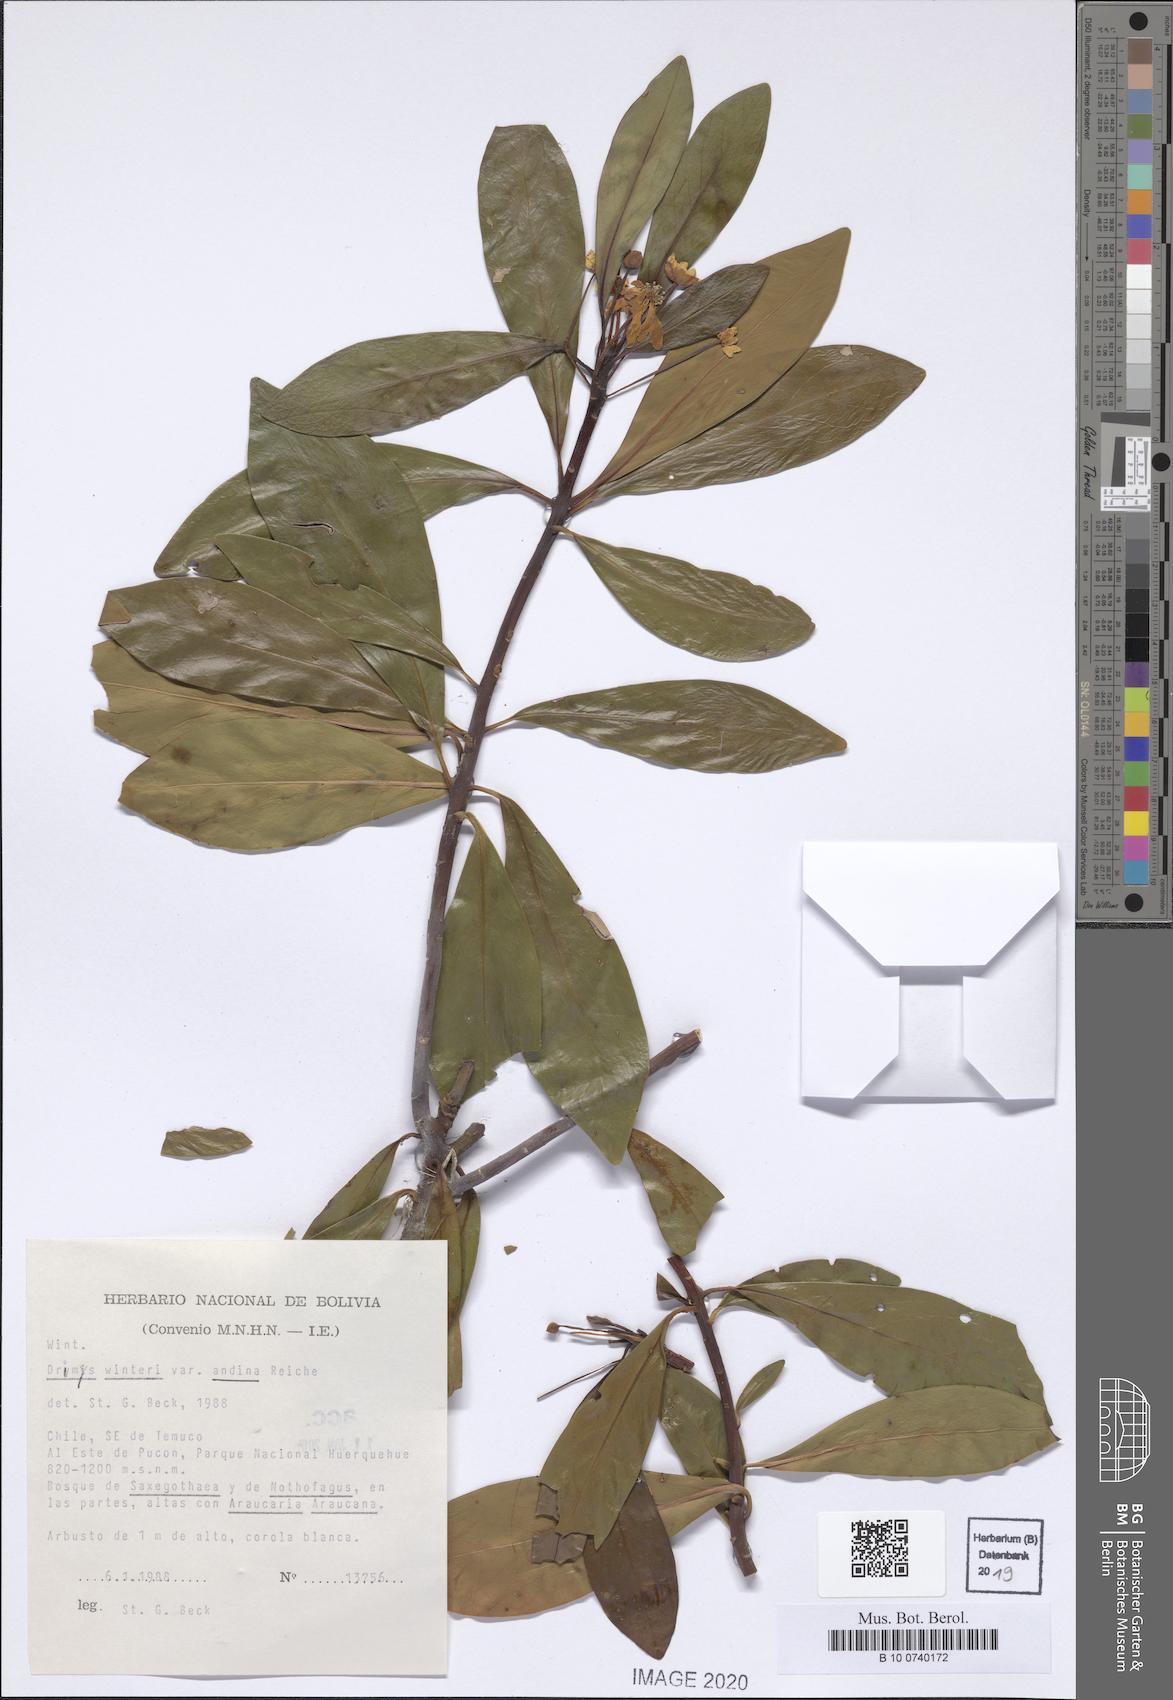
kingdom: Plantae
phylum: Tracheophyta
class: Magnoliopsida
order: Canellales
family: Winteraceae
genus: Drimys
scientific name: Drimys andina
